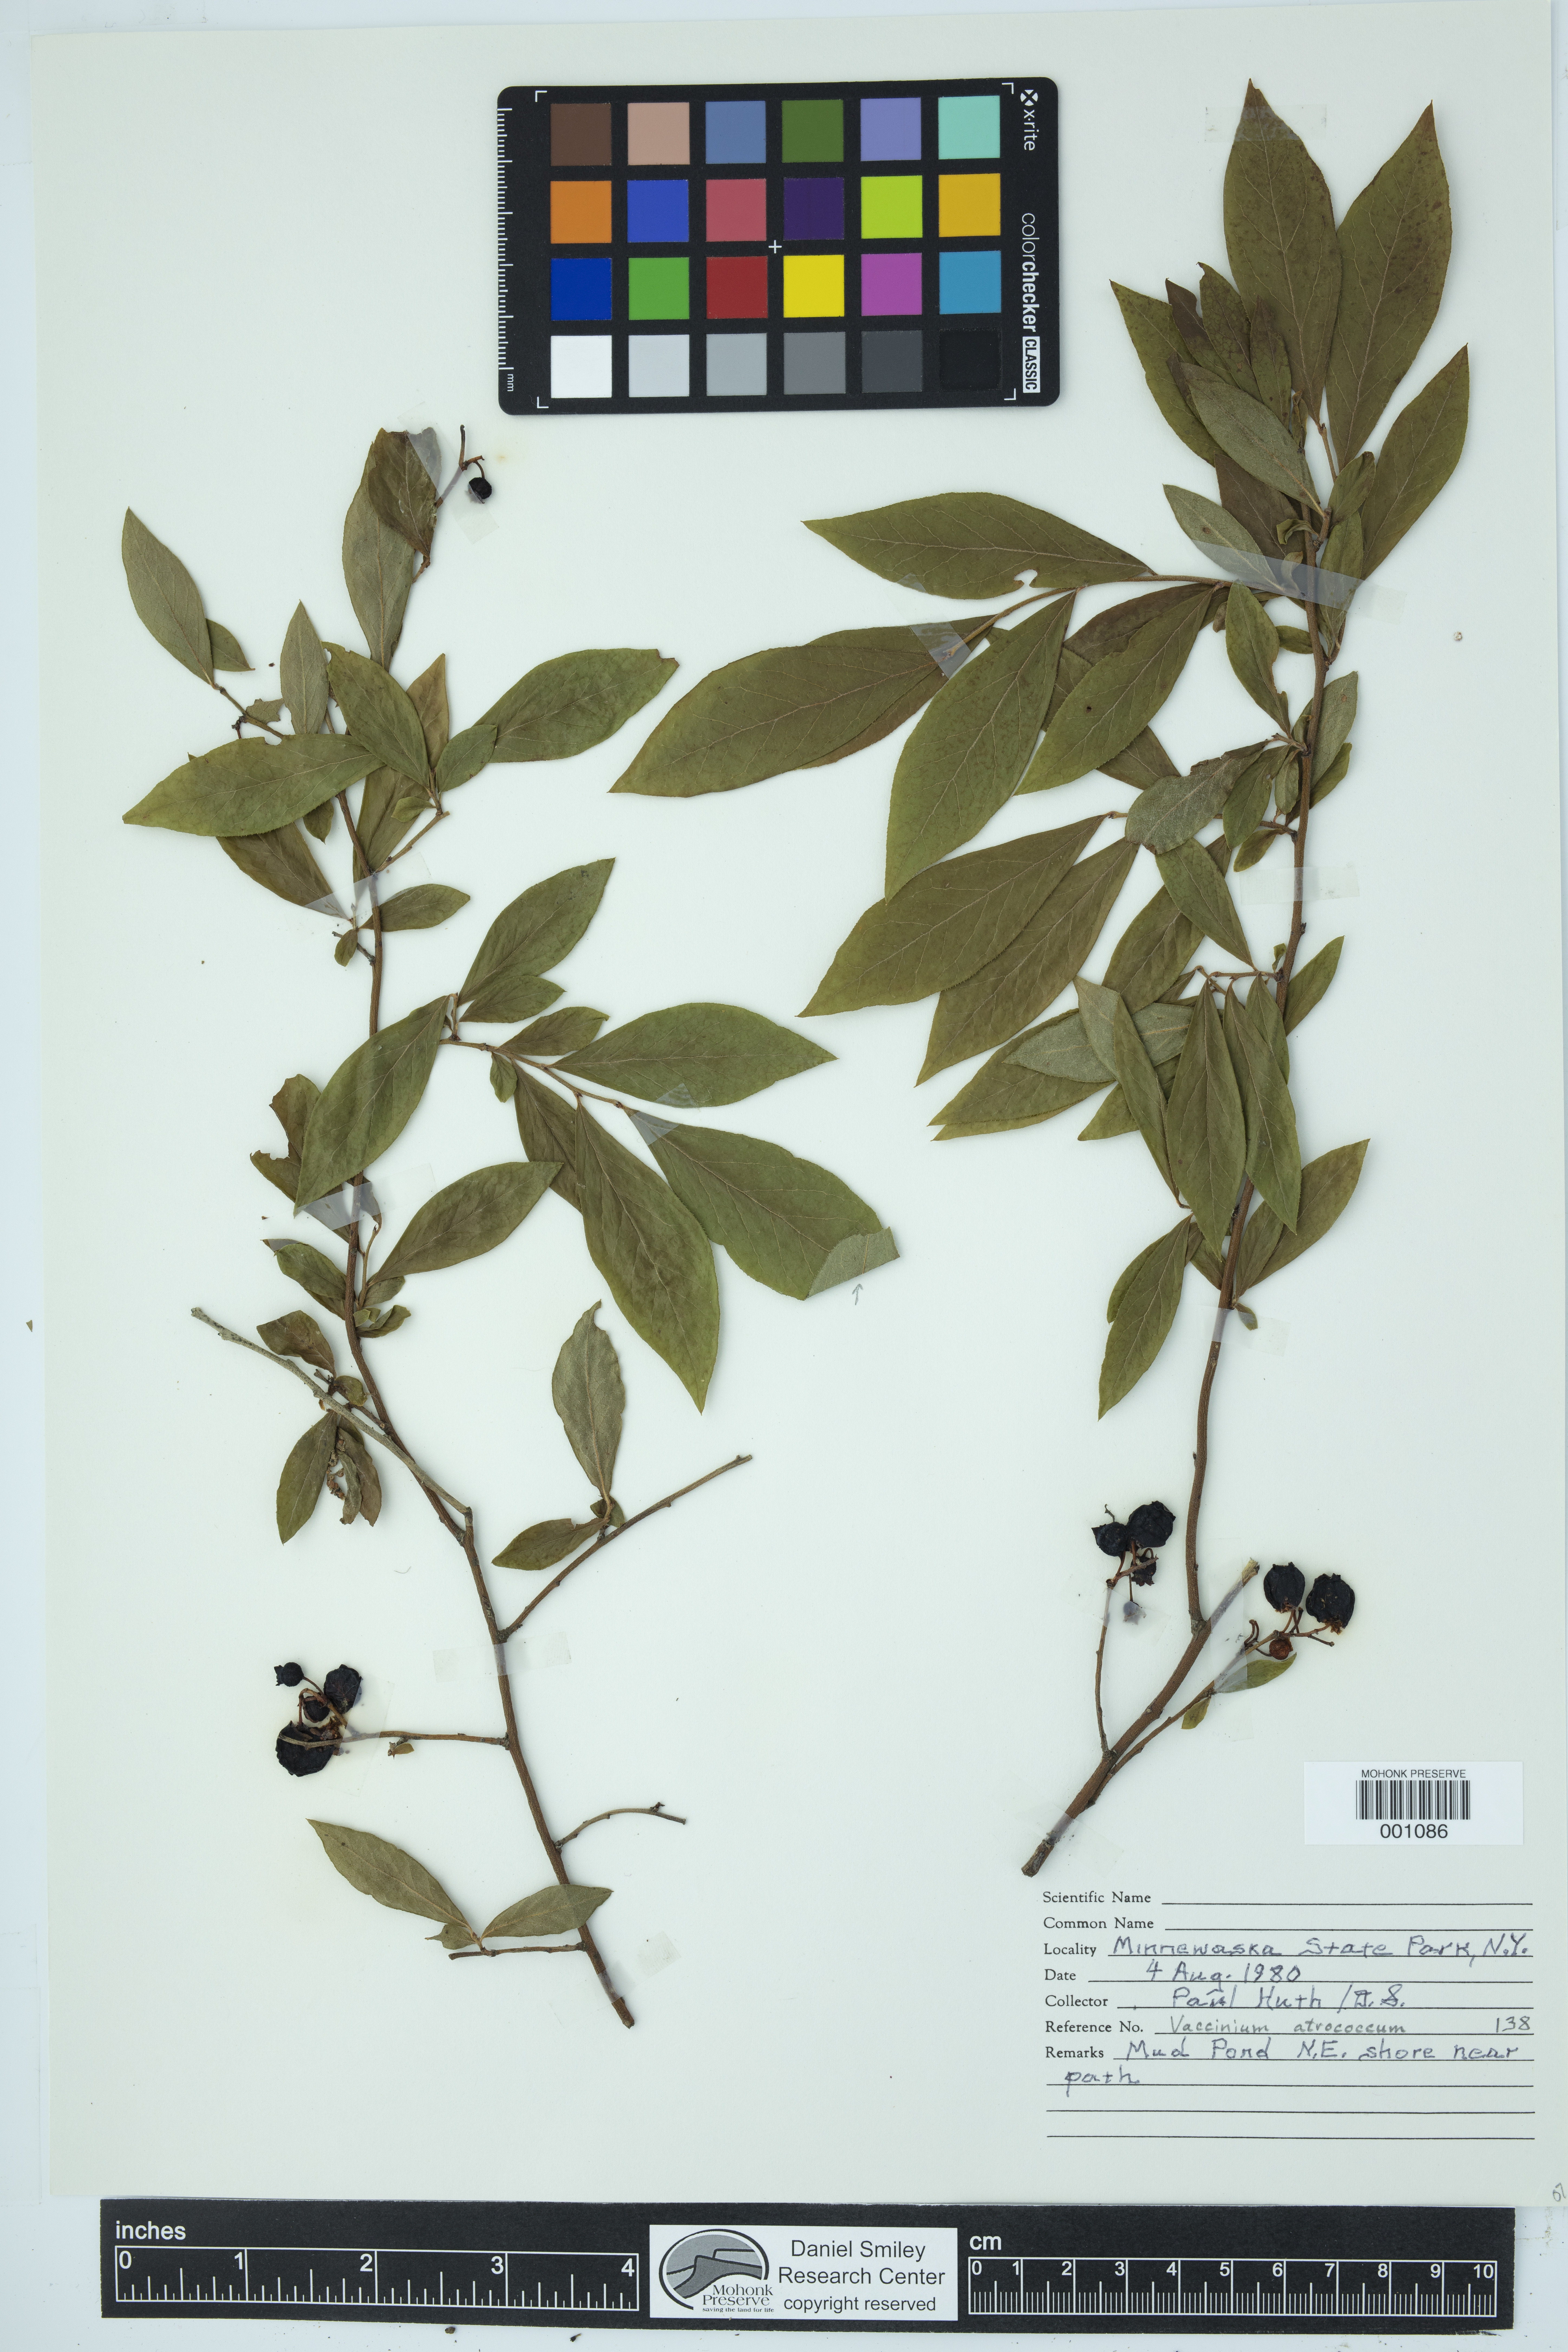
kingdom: Plantae
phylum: Tracheophyta
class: Magnoliopsida
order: Ericales
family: Ericaceae
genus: Vaccinium
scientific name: Vaccinium corymbosum
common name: Blueberry
